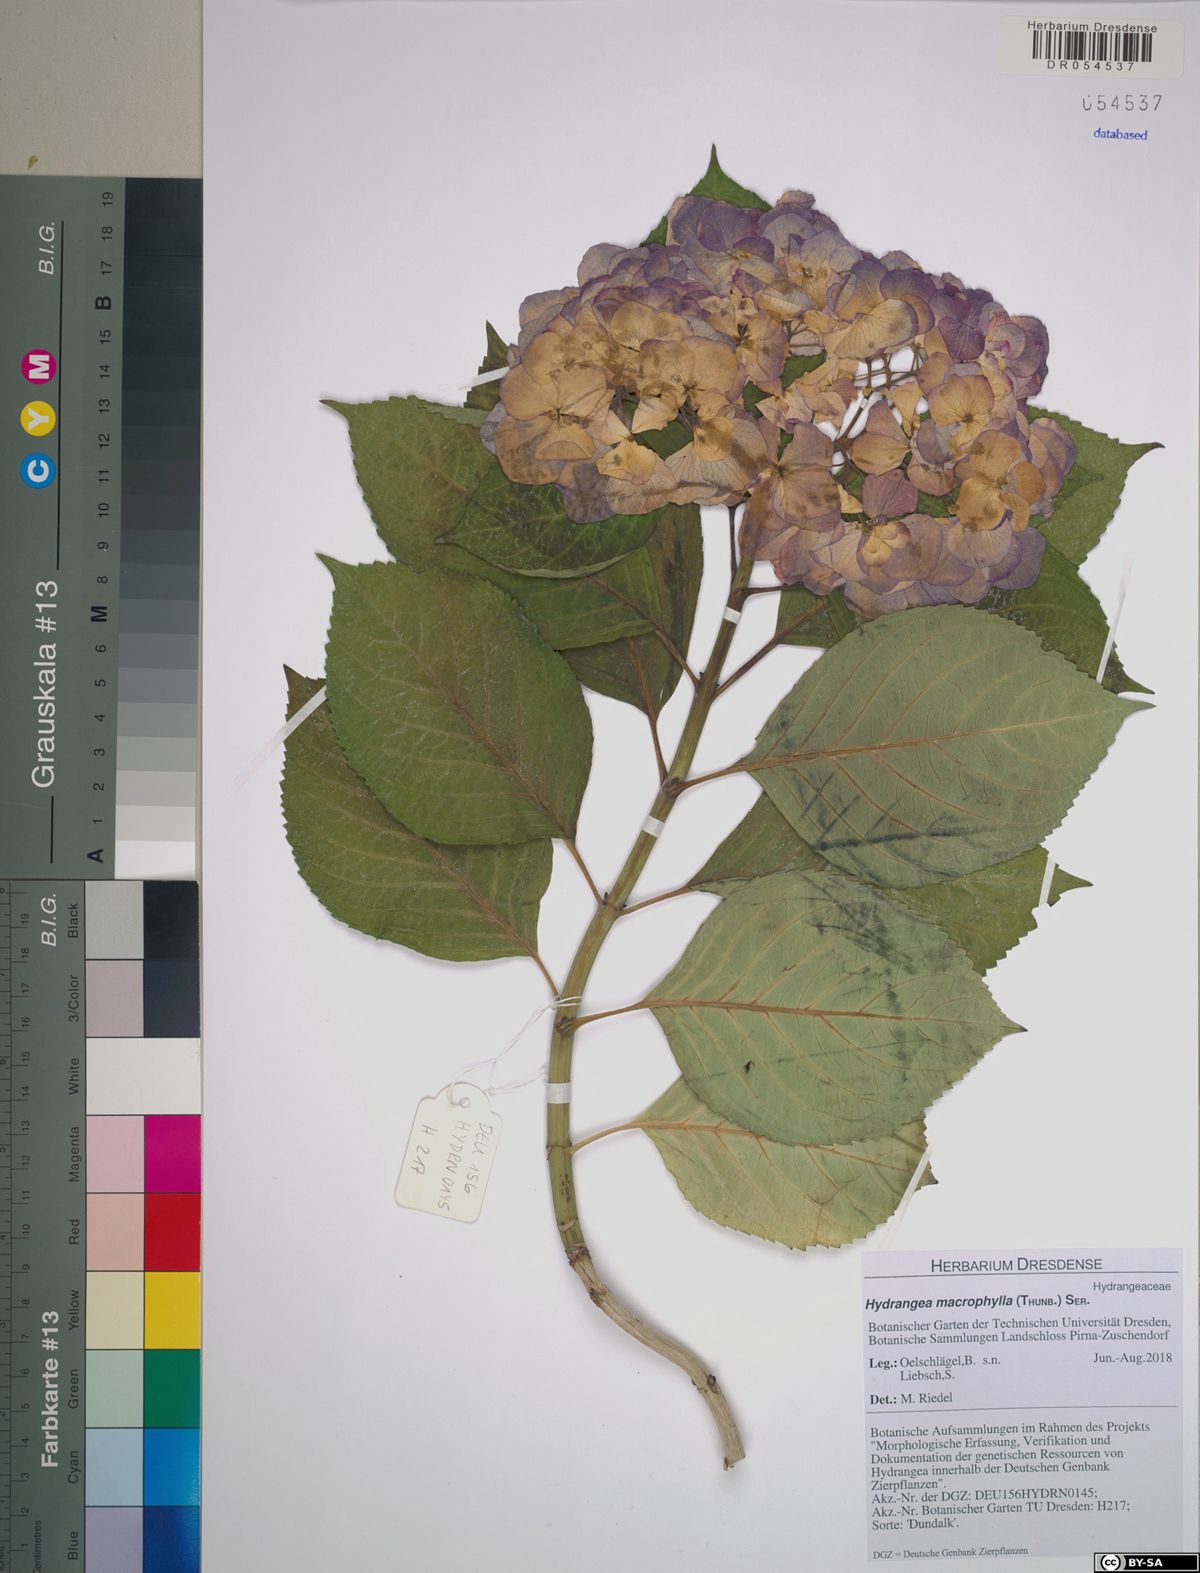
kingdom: Plantae
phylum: Tracheophyta
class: Magnoliopsida
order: Cornales
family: Hydrangeaceae
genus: Hydrangea
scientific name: Hydrangea macrophylla
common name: Hydrangea
